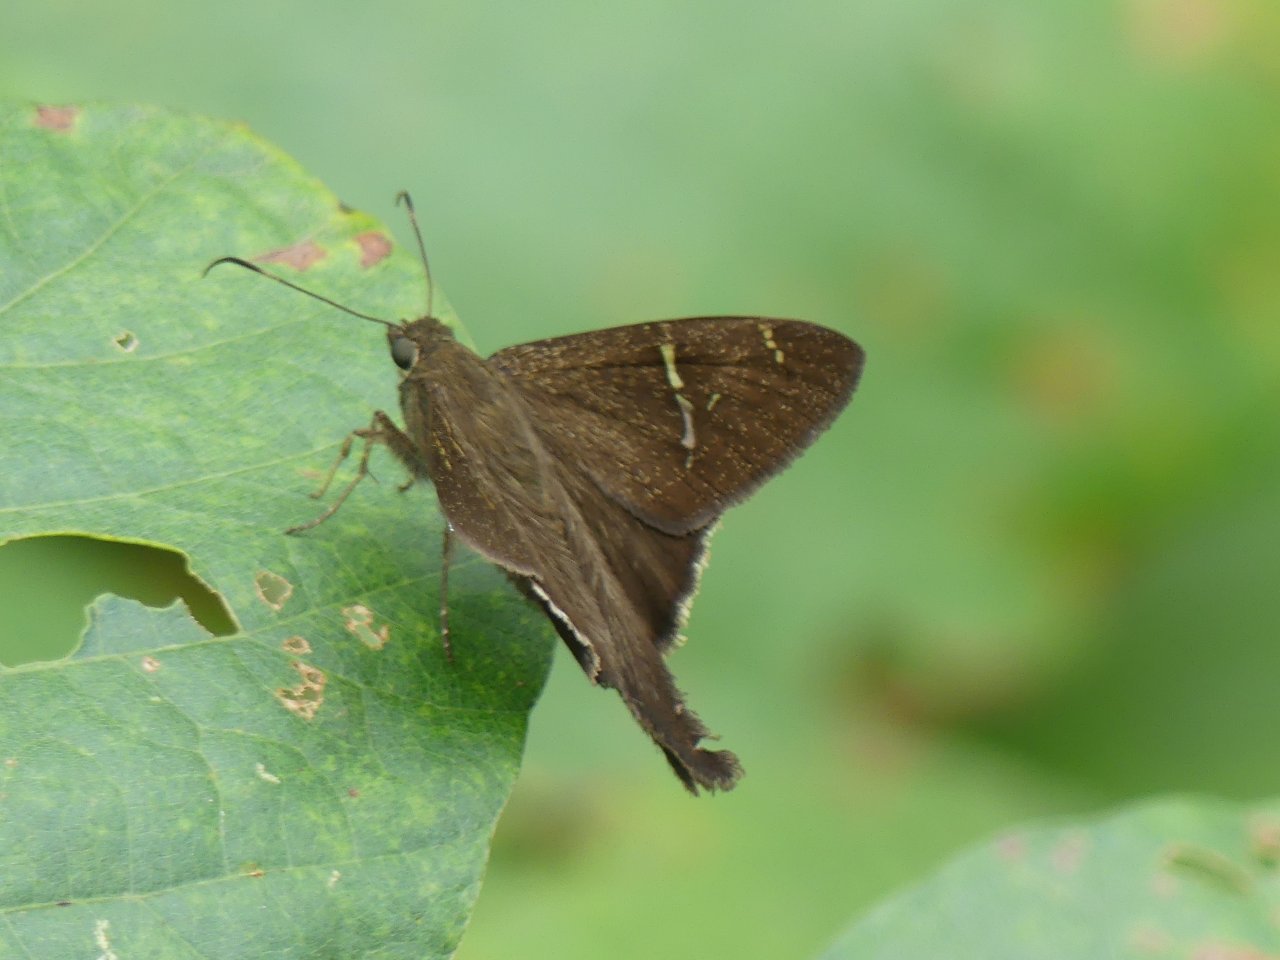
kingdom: Animalia
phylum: Arthropoda
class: Insecta
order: Lepidoptera
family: Hesperiidae
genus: Urbanus
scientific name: Urbanus tanna
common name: Tanna Longtail
